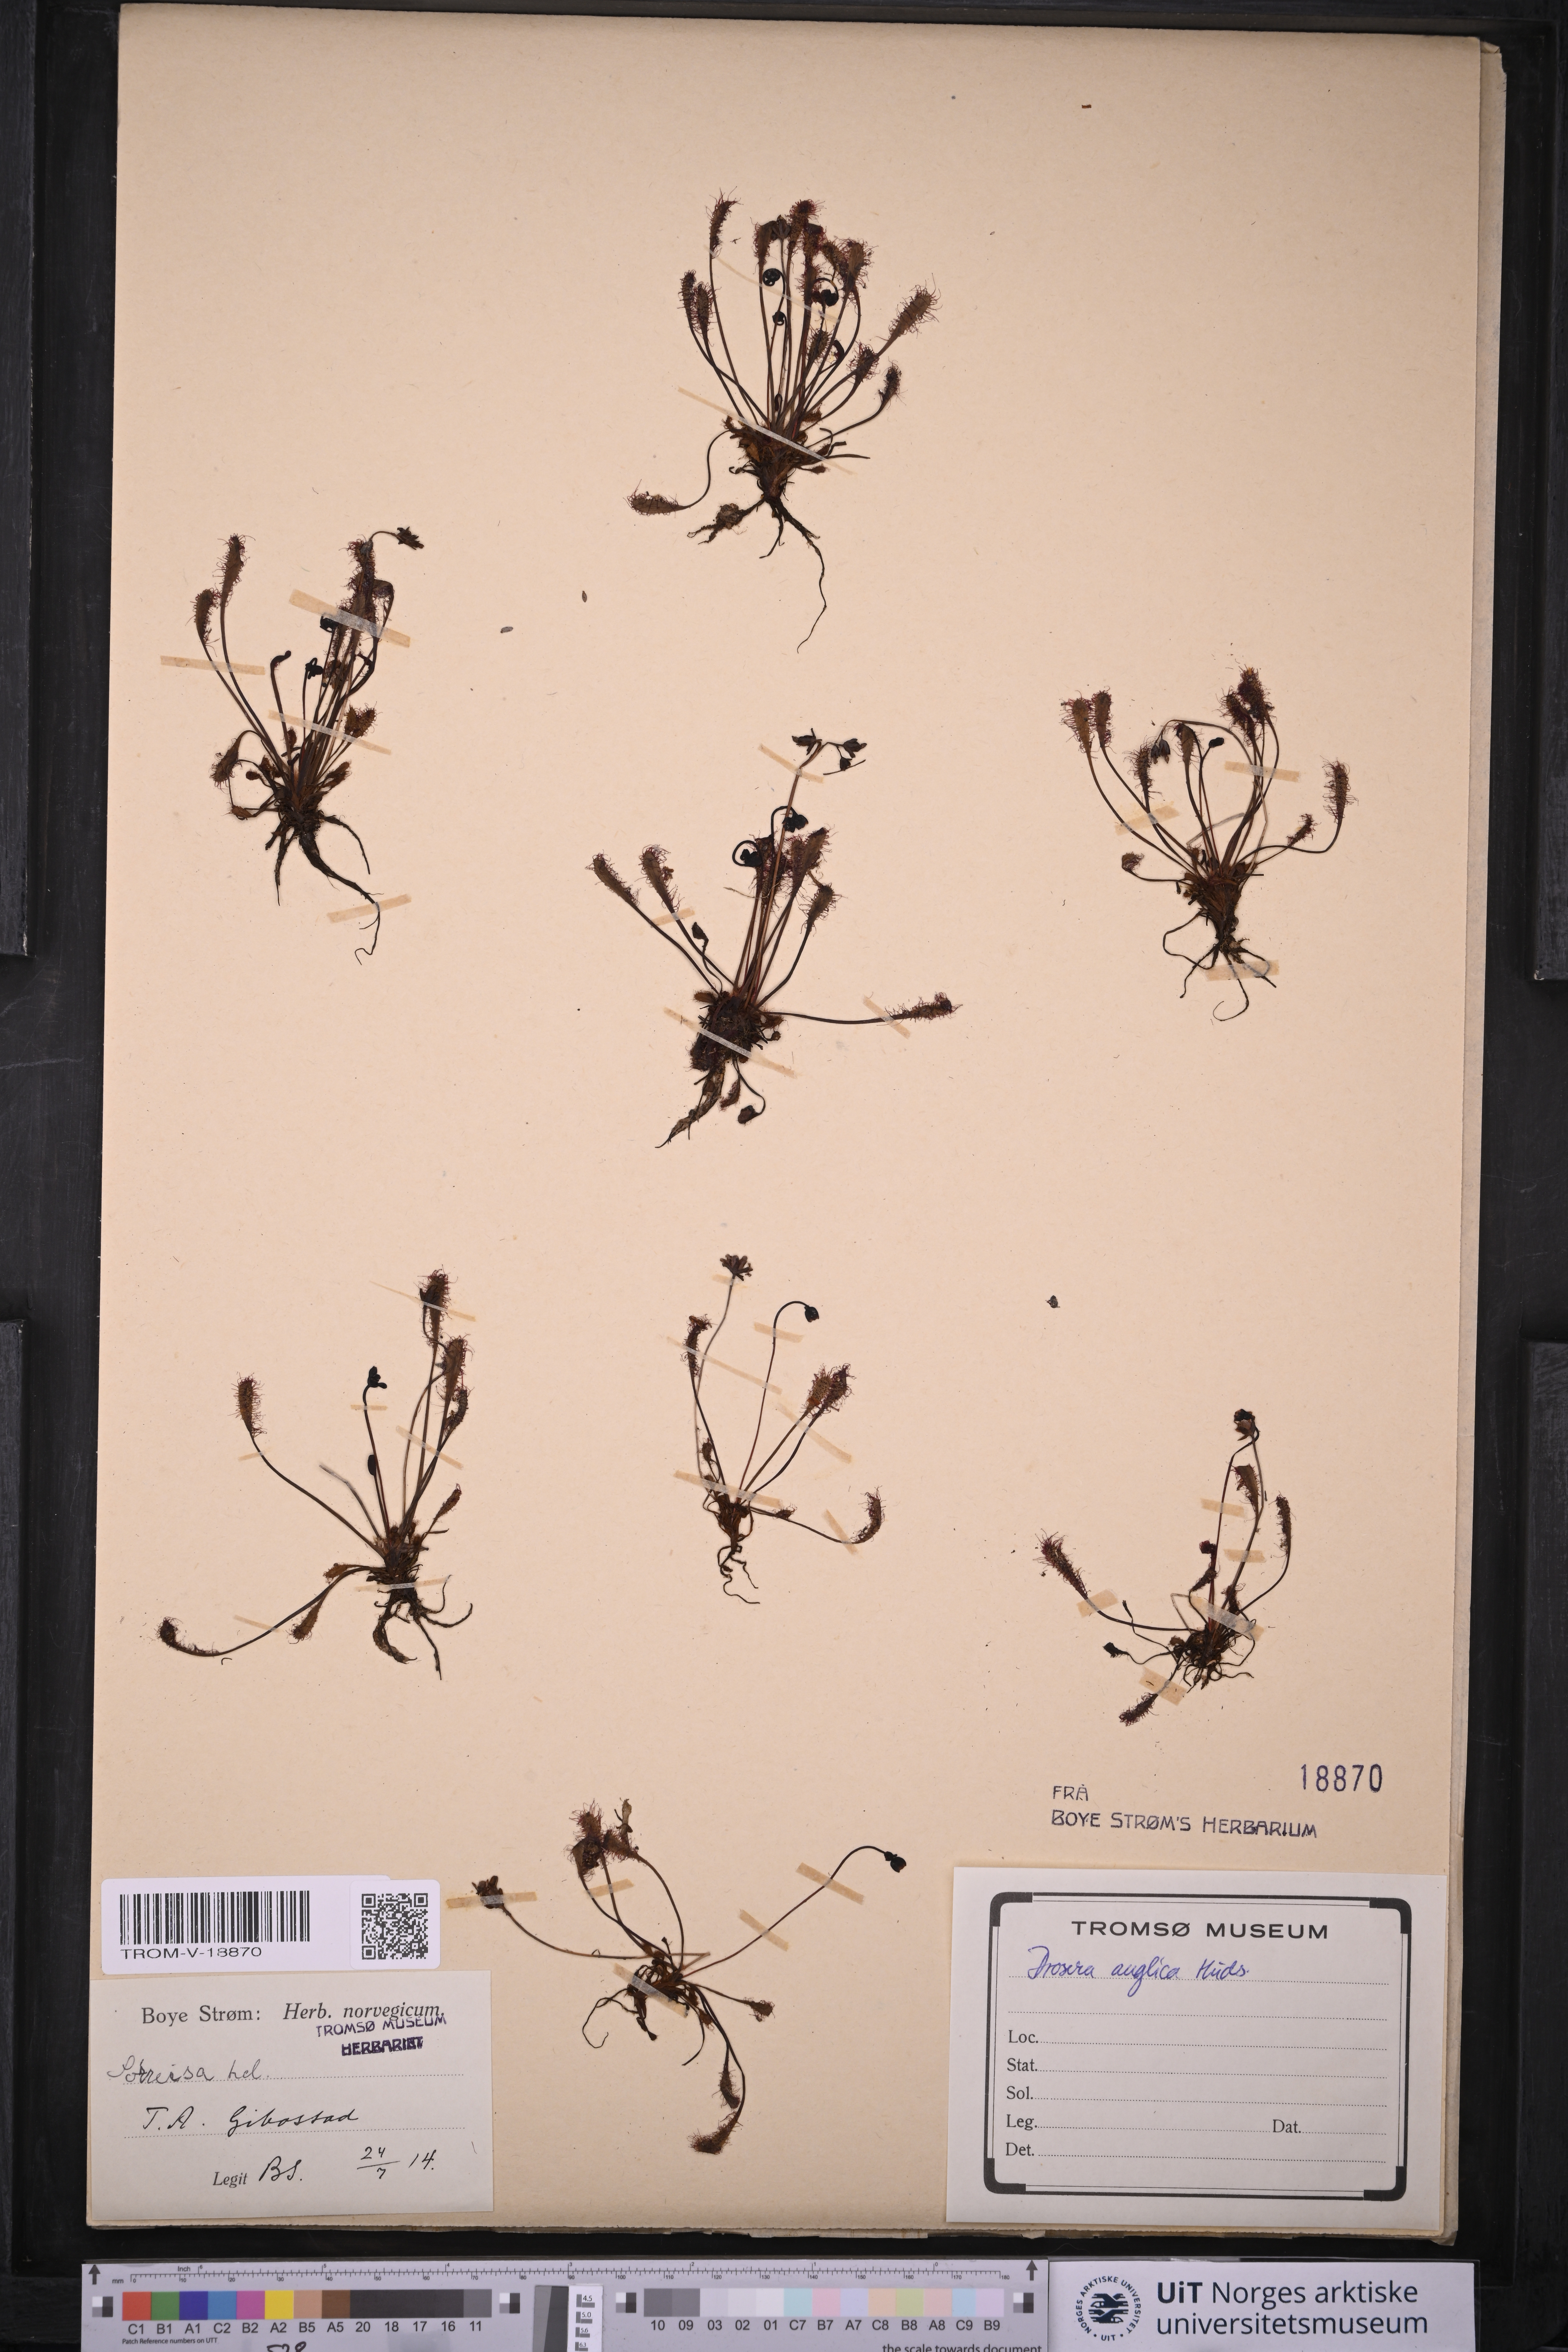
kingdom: Plantae
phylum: Tracheophyta
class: Magnoliopsida
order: Caryophyllales
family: Droseraceae
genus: Drosera
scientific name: Drosera anglica
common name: Great sundew
